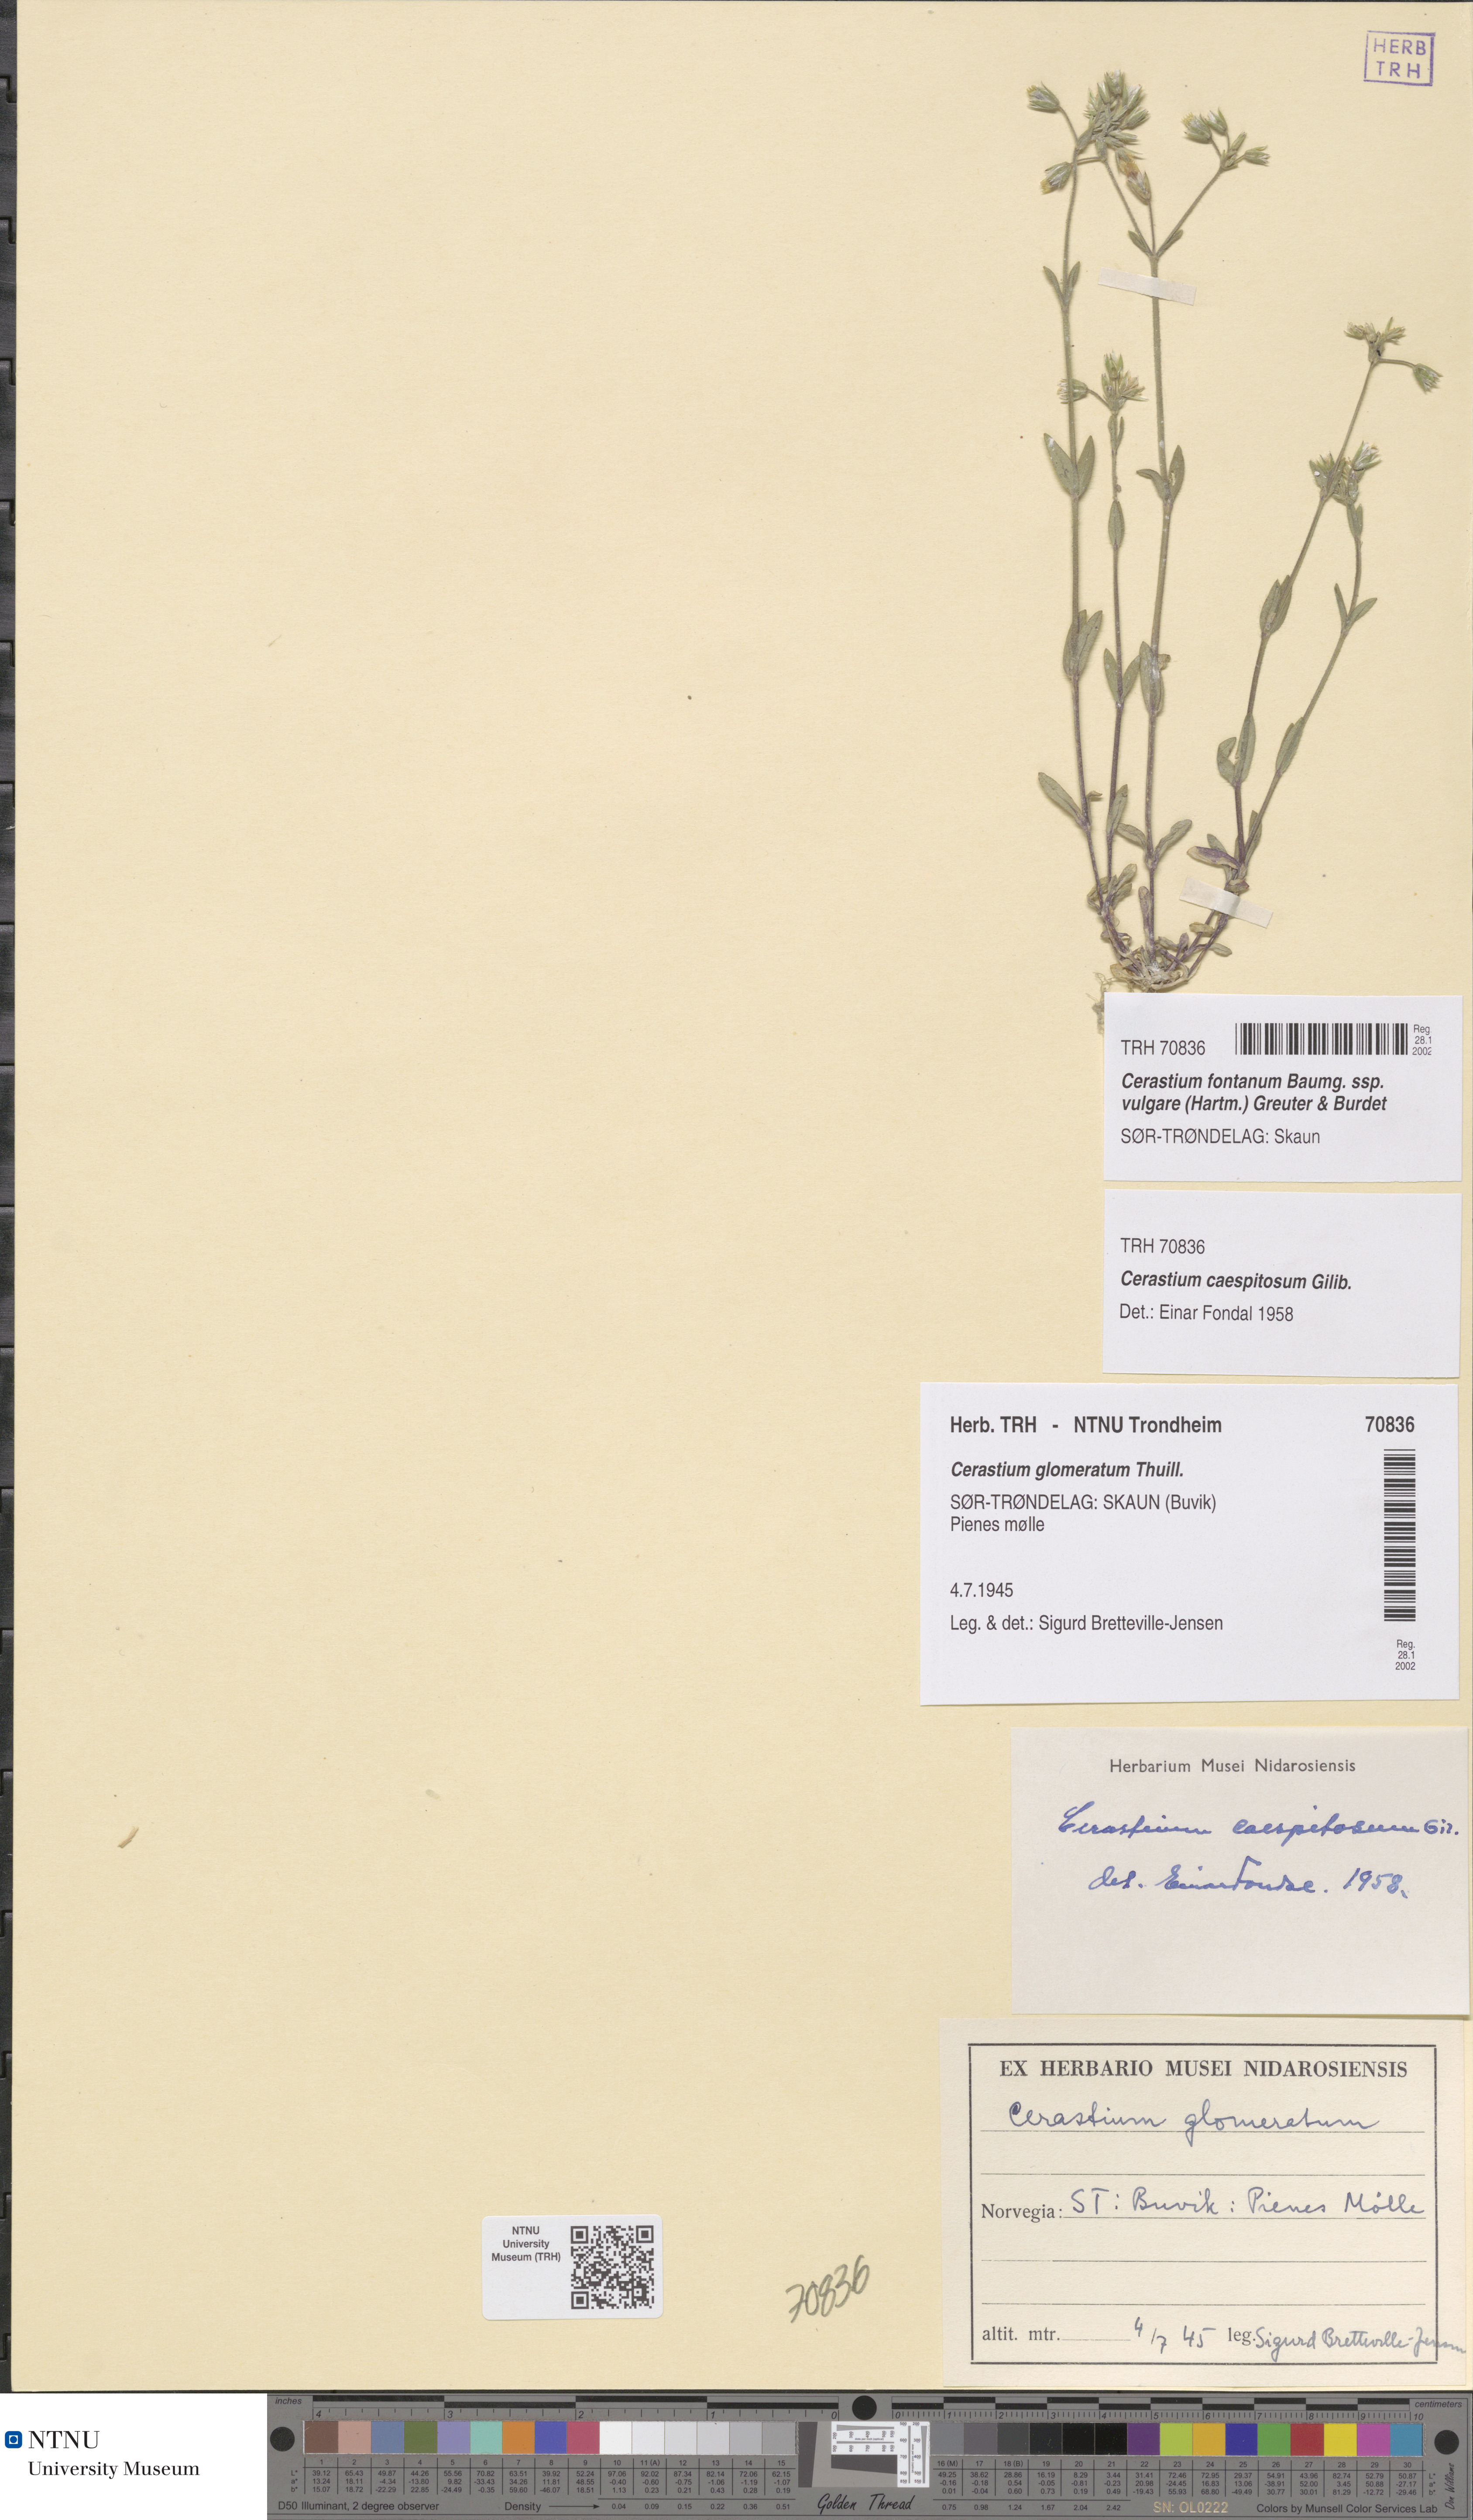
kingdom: Plantae
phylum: Tracheophyta
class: Magnoliopsida
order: Caryophyllales
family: Caryophyllaceae
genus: Cerastium
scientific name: Cerastium holosteoides
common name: Big chickweed
